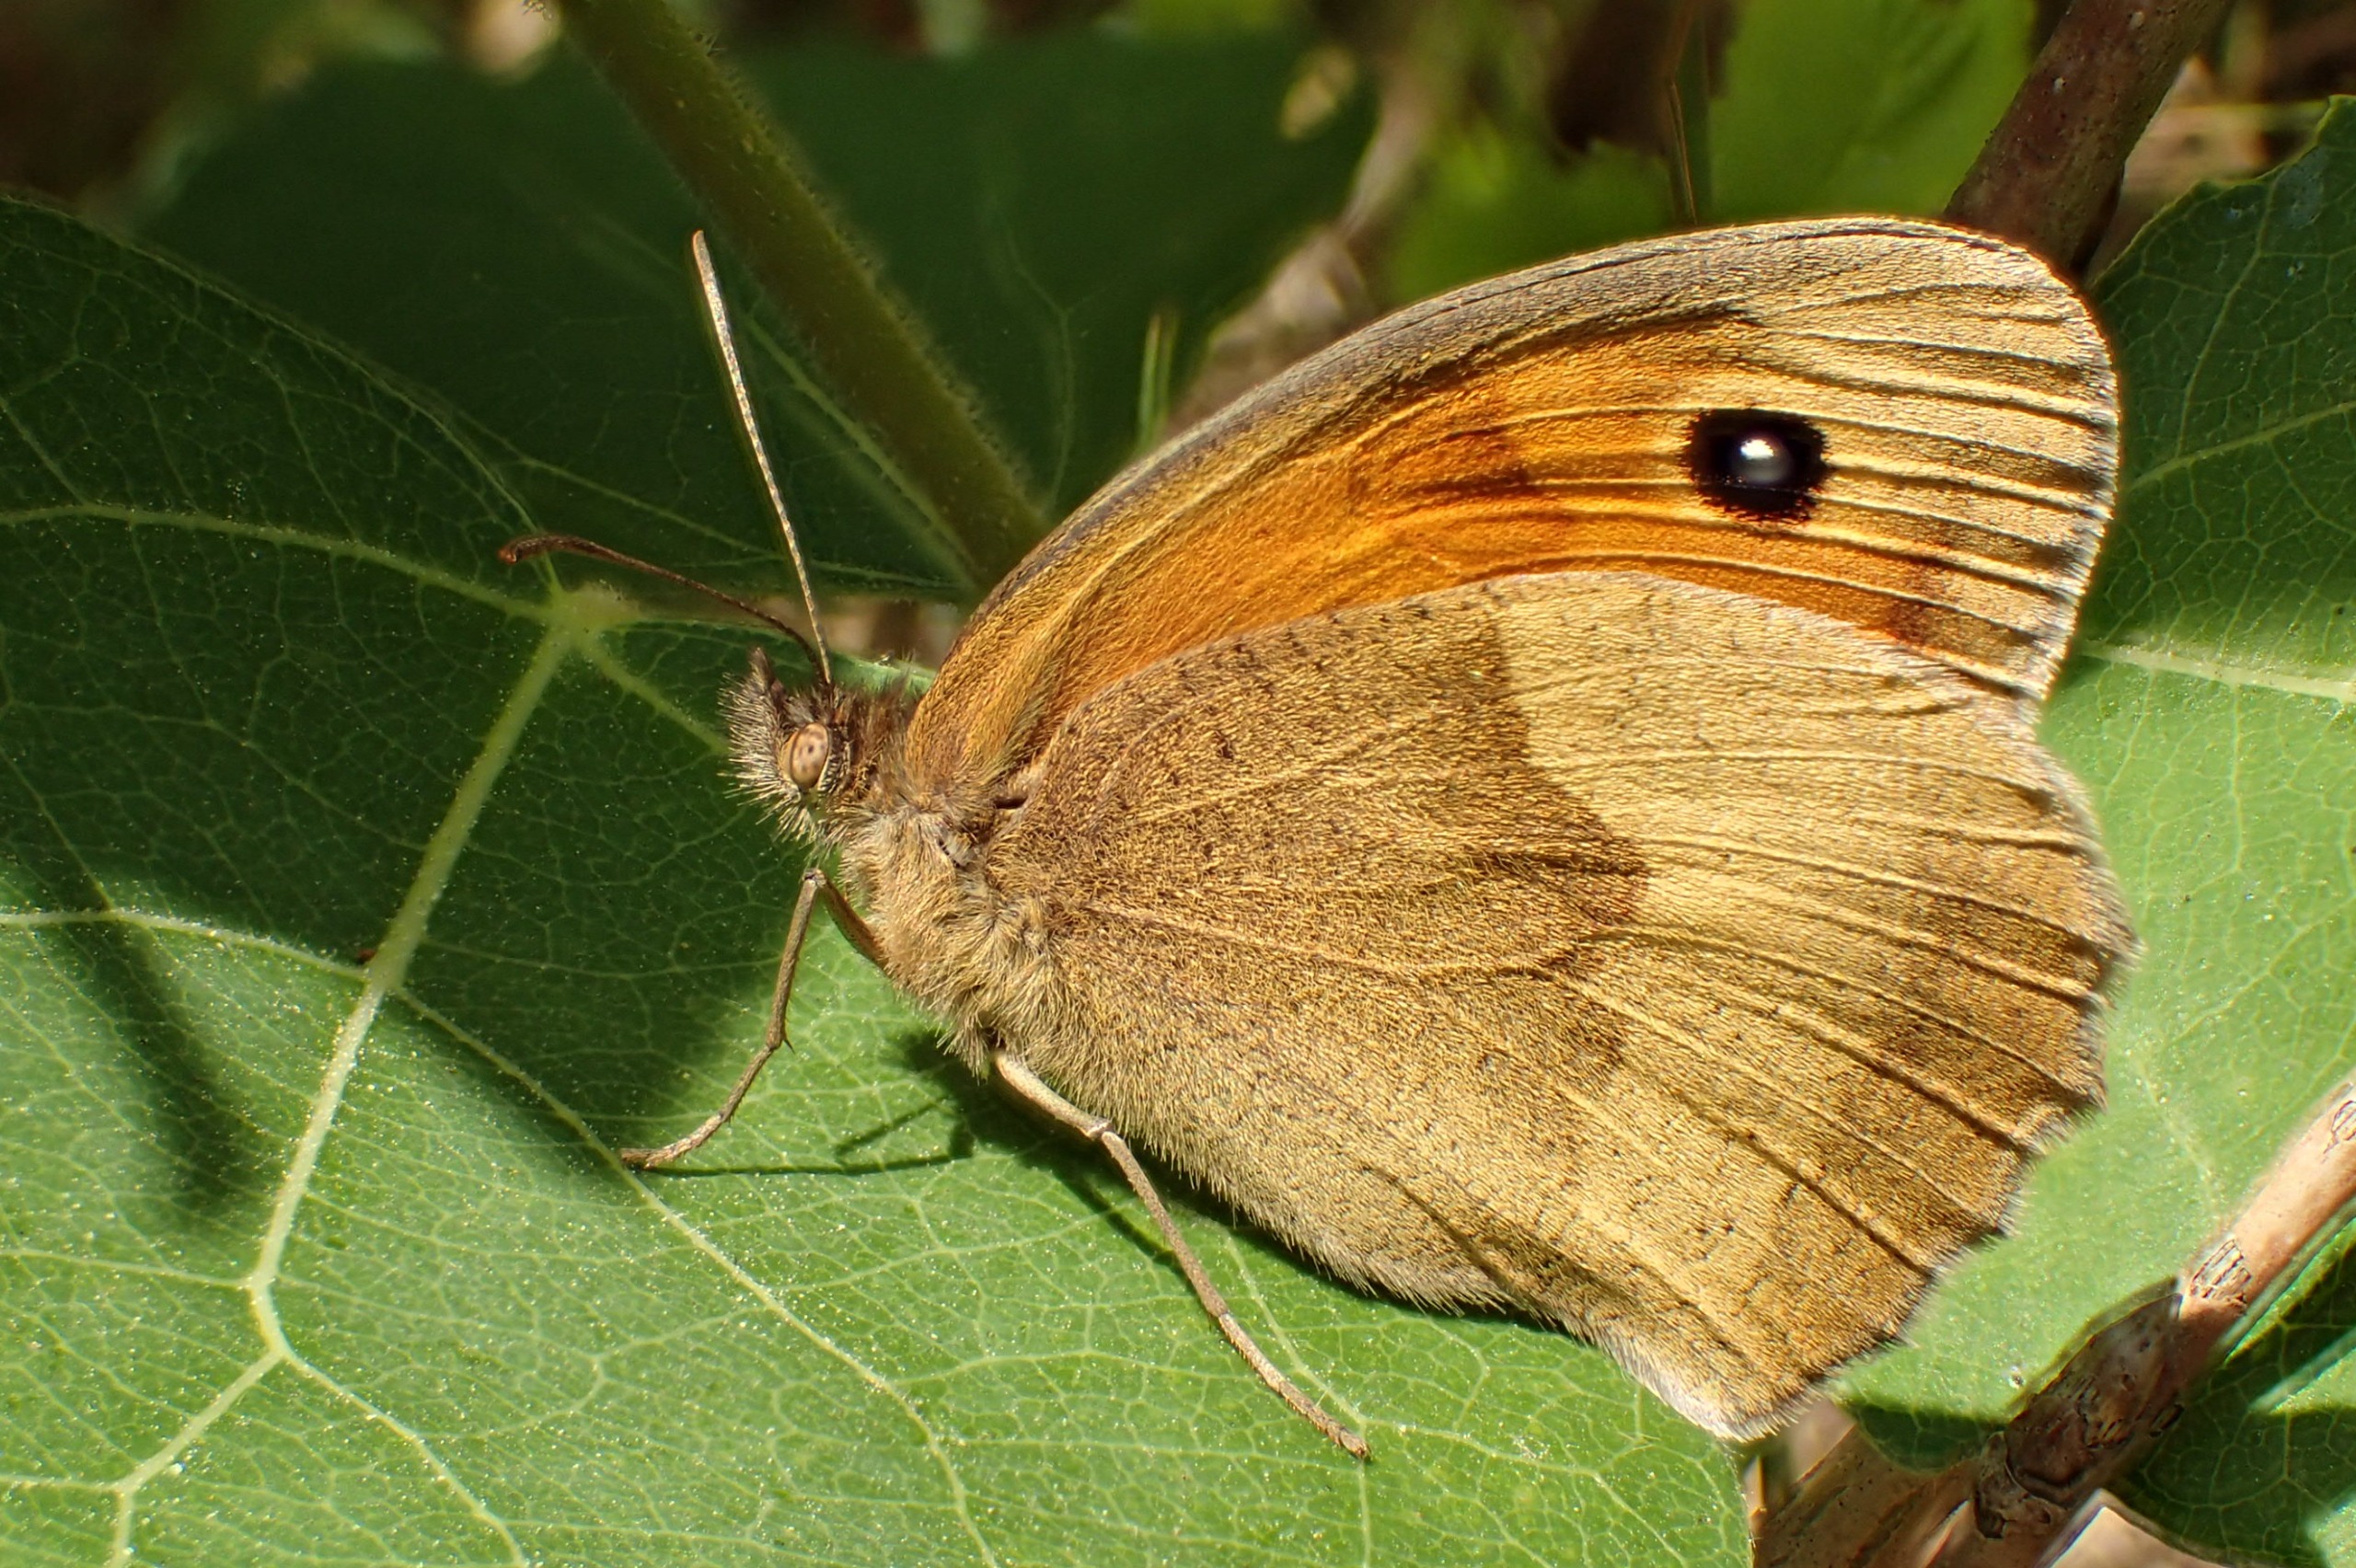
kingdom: Animalia
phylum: Arthropoda
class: Insecta
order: Lepidoptera
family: Nymphalidae
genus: Maniola
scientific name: Maniola jurtina
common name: Græsrandøje
